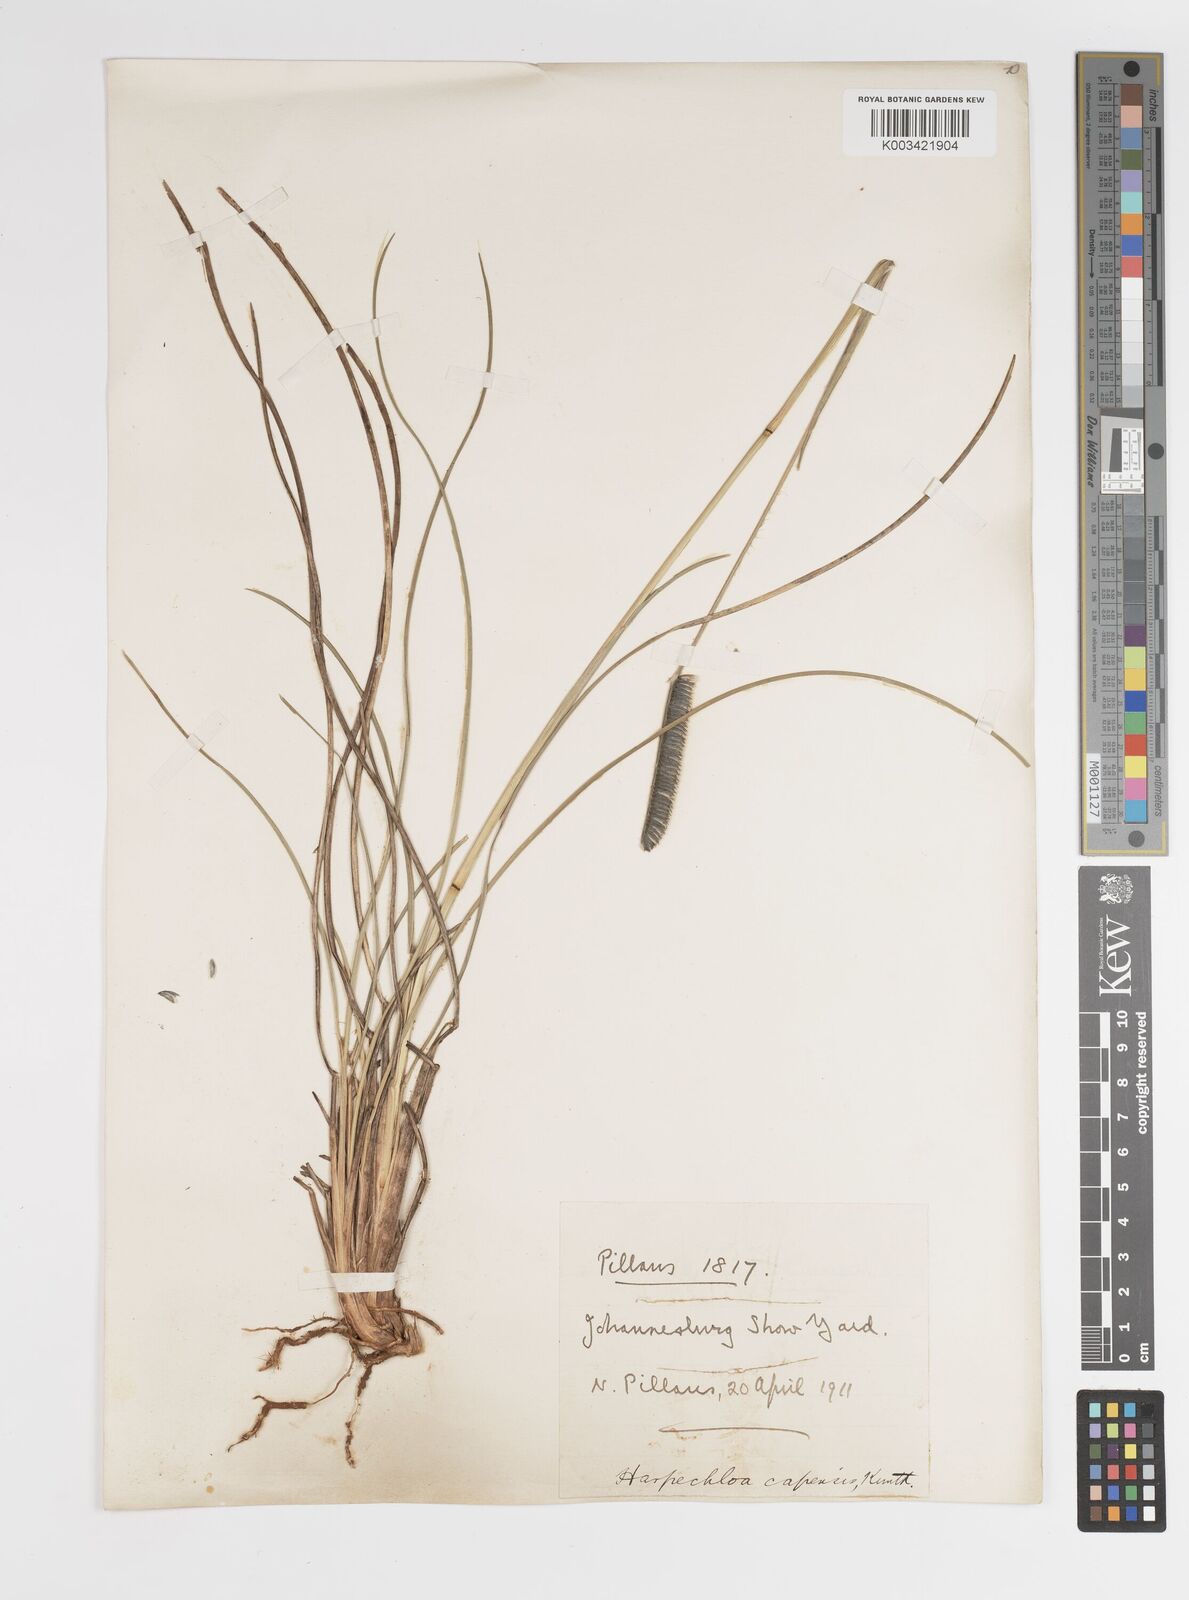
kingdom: Plantae
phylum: Tracheophyta
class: Liliopsida
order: Poales
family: Poaceae
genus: Harpochloa
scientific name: Harpochloa falx
